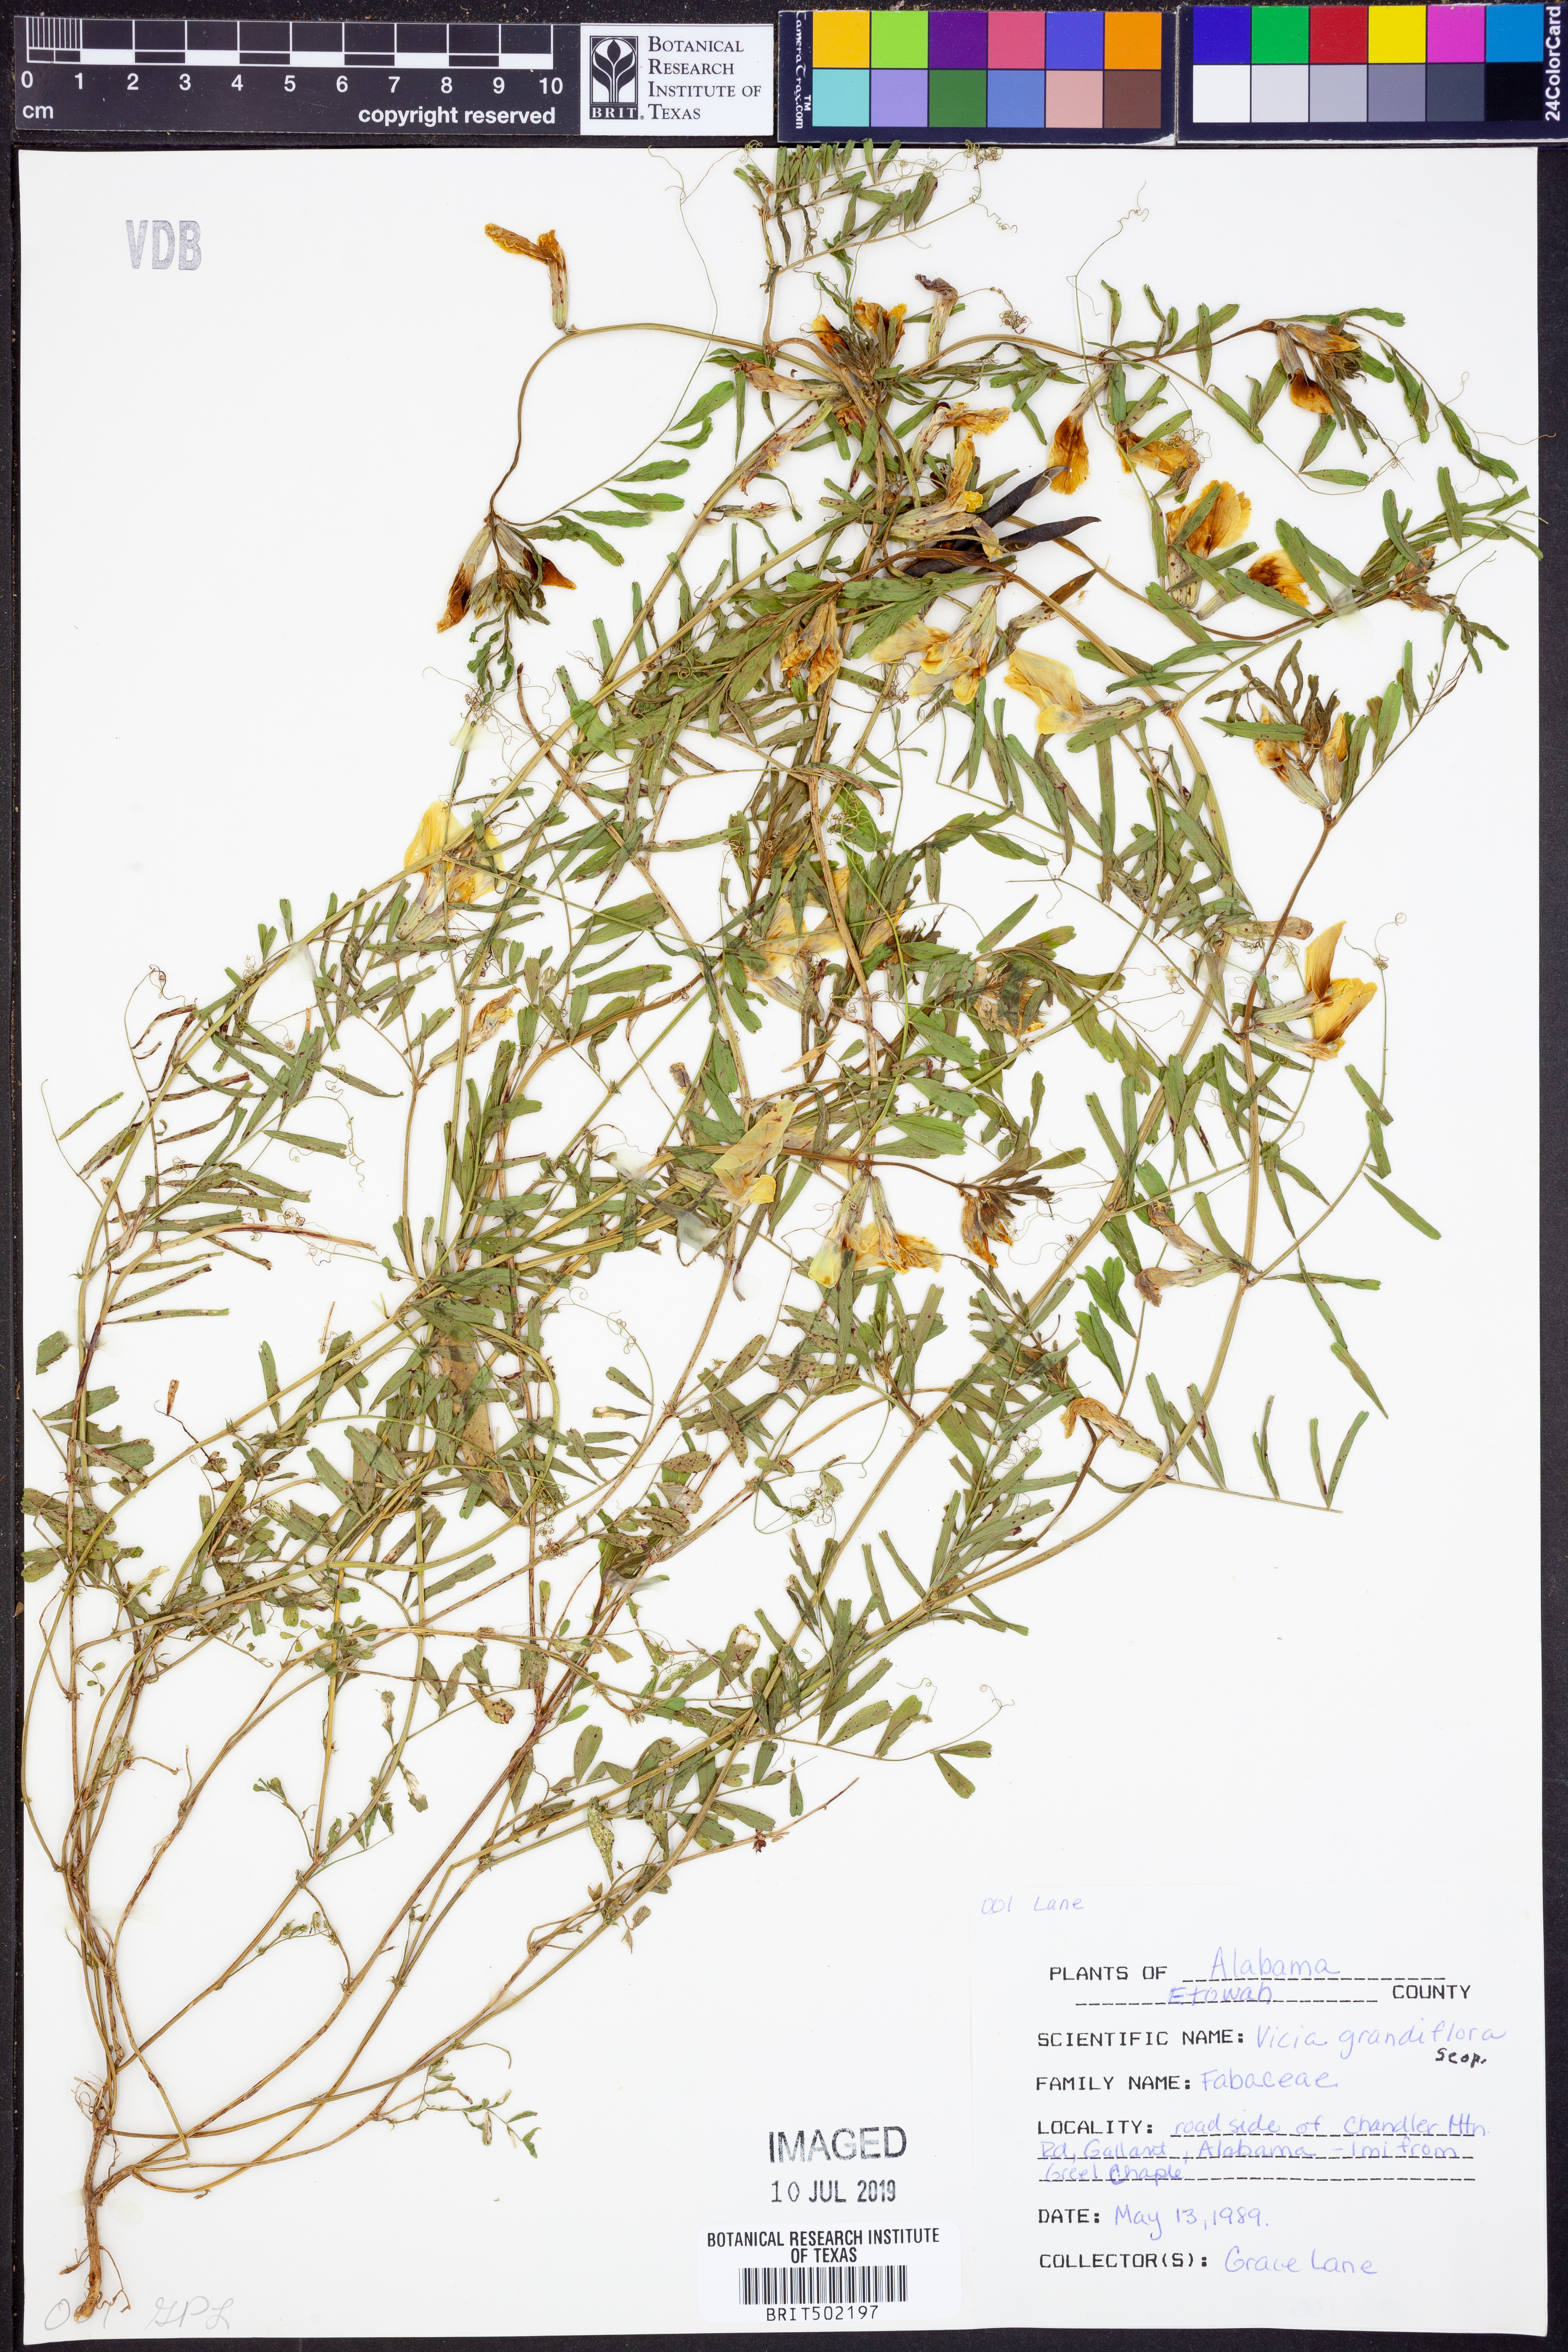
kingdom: Plantae
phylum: Tracheophyta
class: Magnoliopsida
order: Fabales
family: Fabaceae
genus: Vicia
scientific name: Vicia grandiflora
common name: Large yellow vetch
